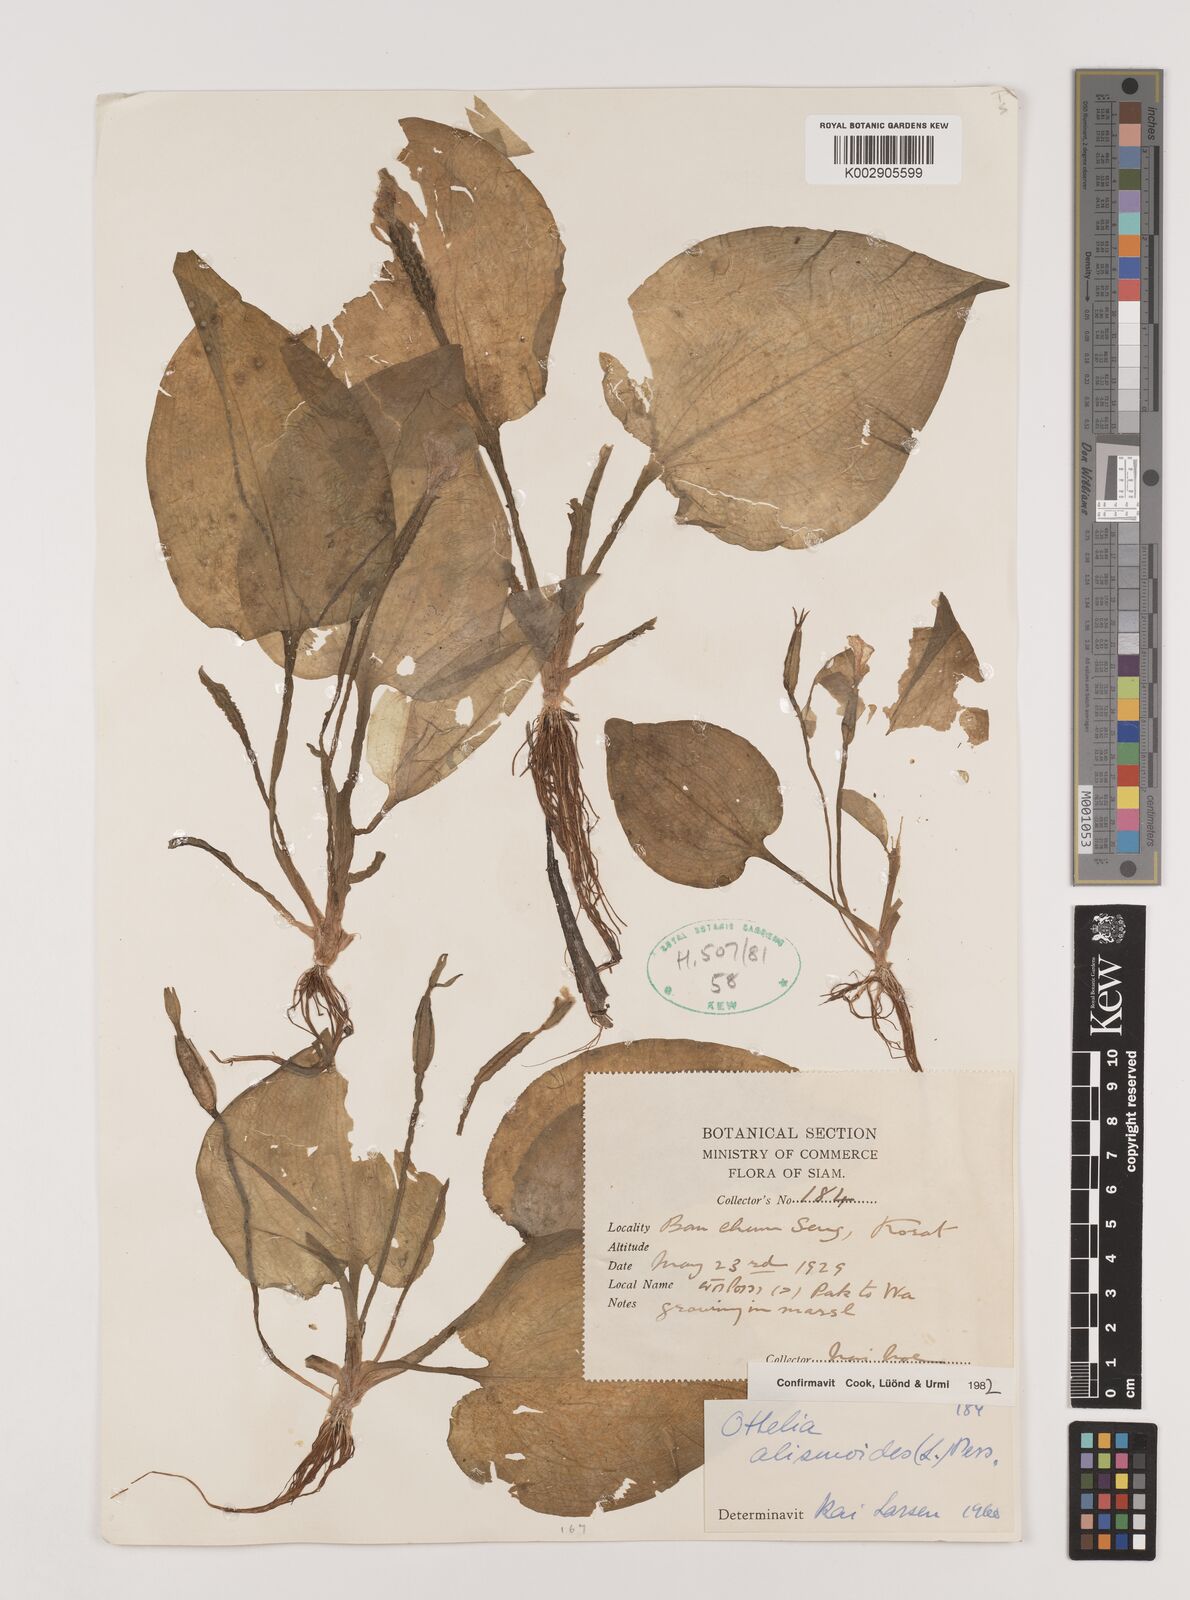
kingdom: Plantae
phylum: Tracheophyta
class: Liliopsida
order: Alismatales
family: Hydrocharitaceae
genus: Ottelia
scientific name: Ottelia alismoides
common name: Duck-lettuce
